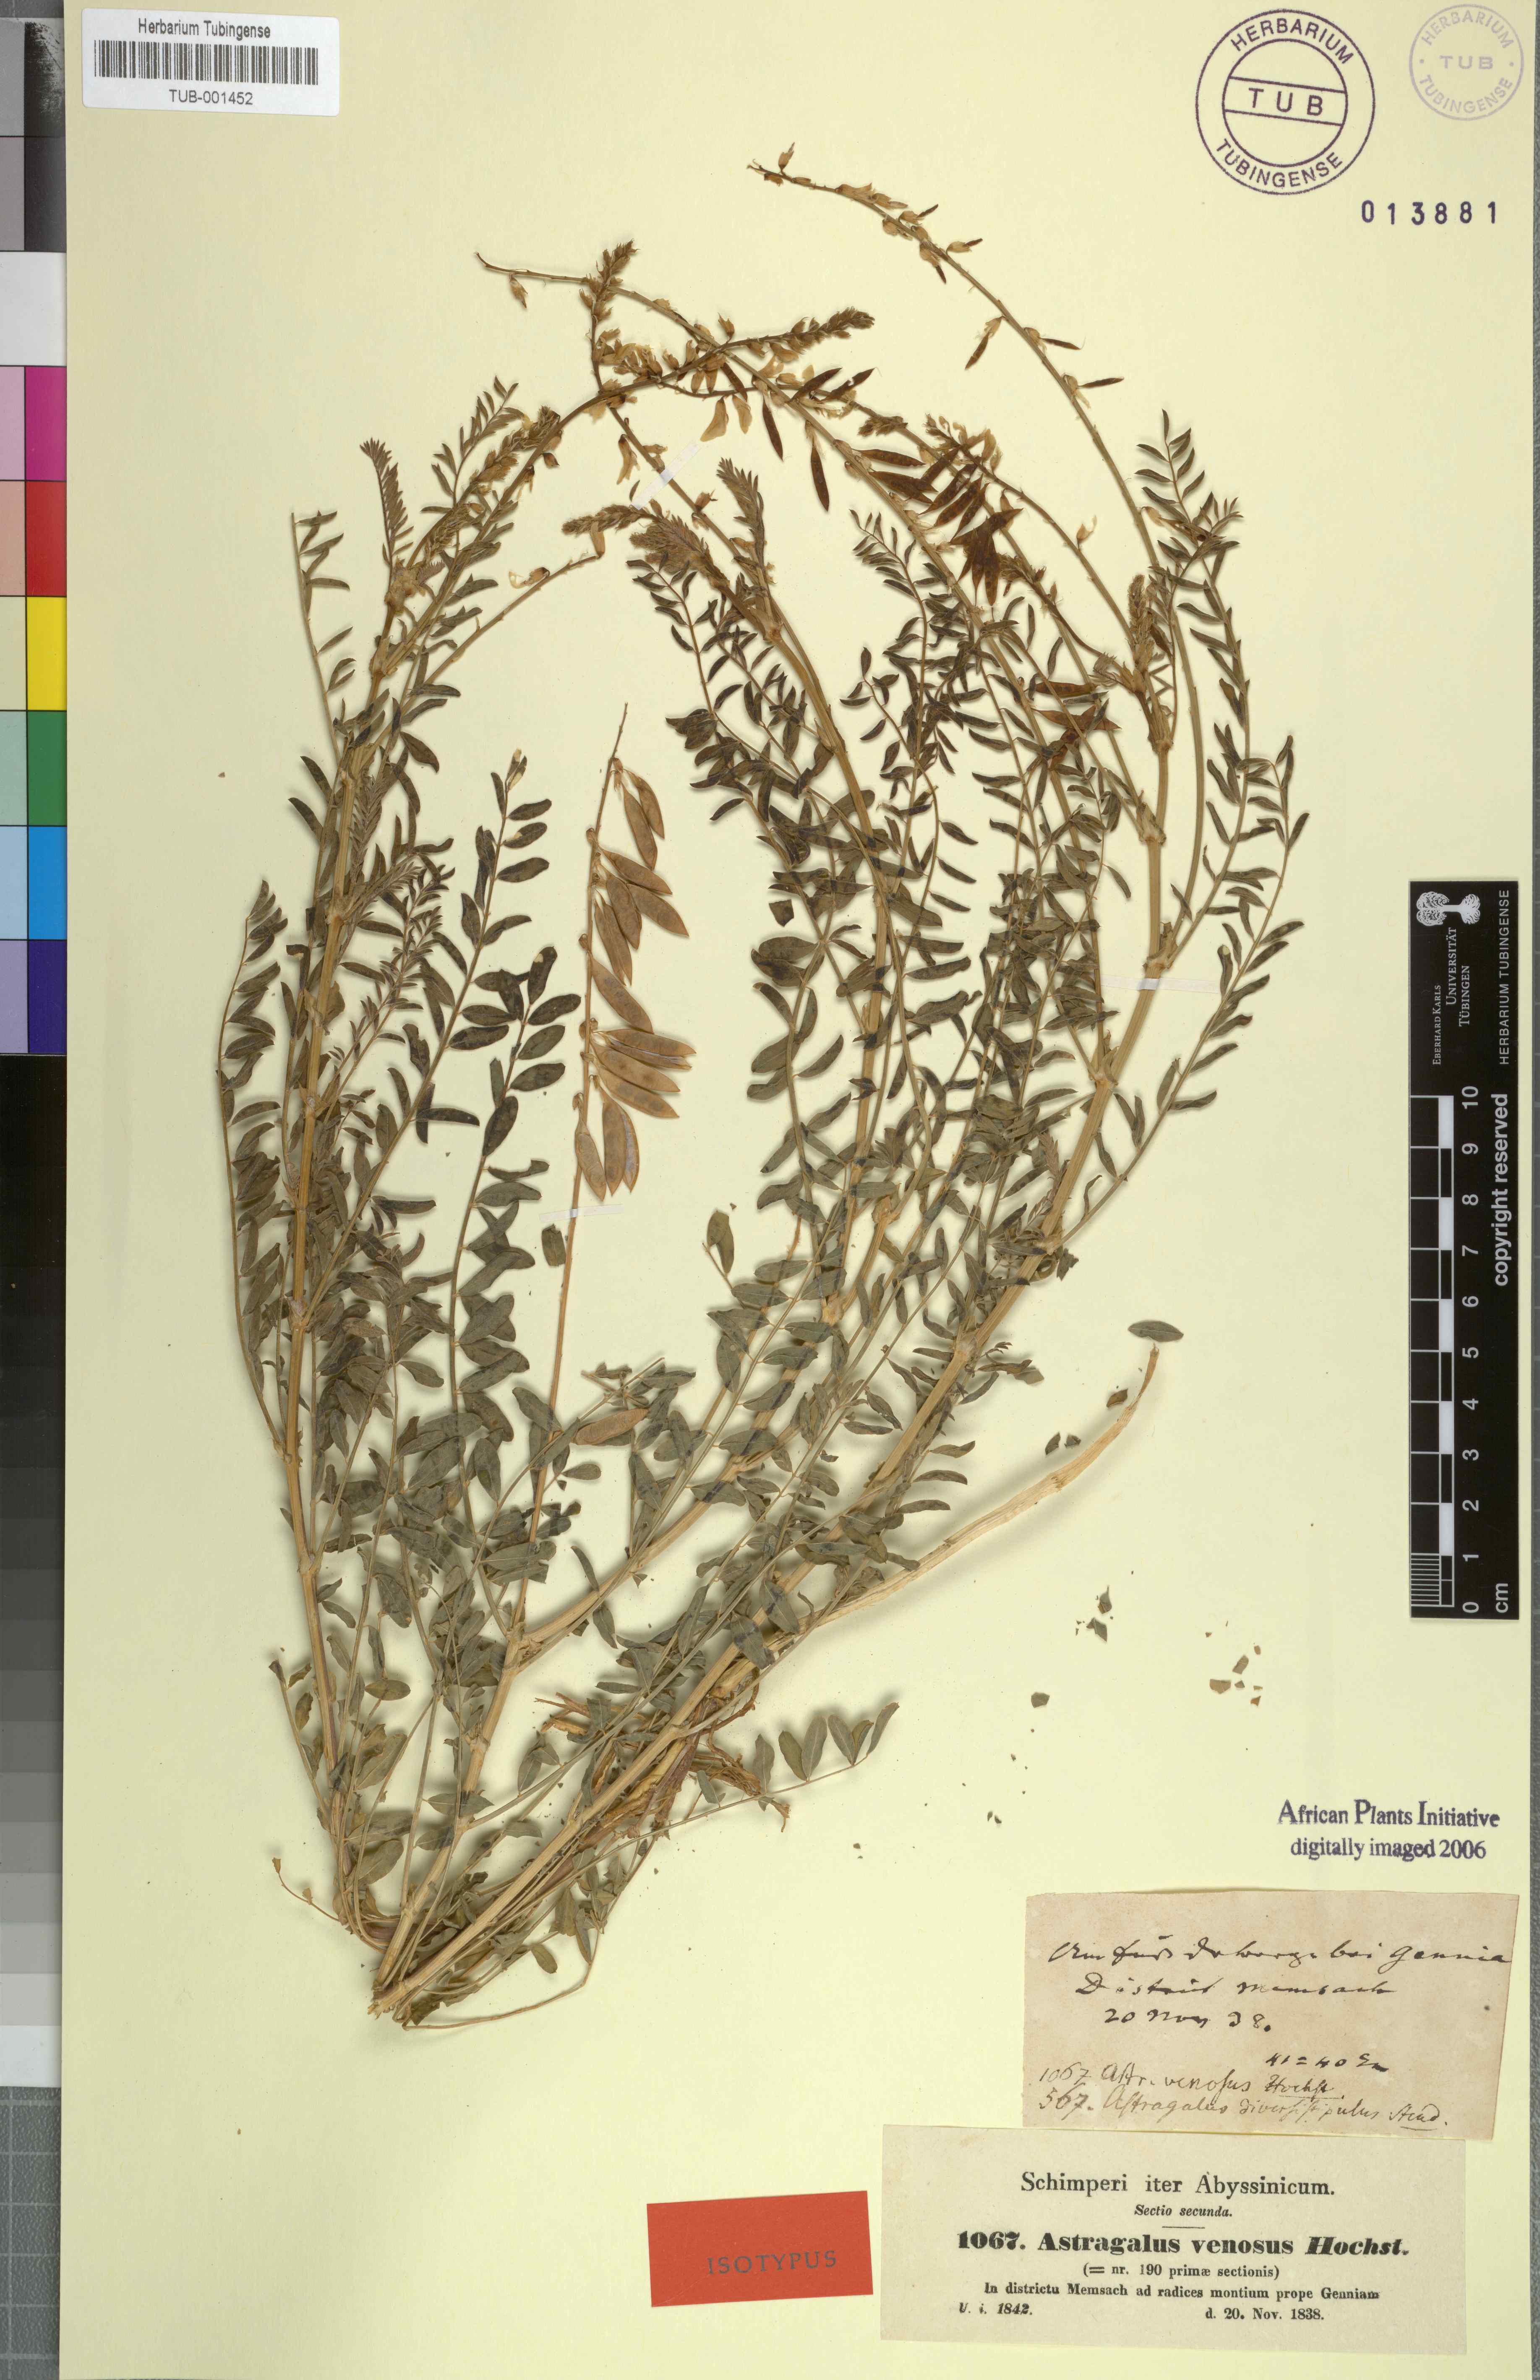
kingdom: Plantae
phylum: Tracheophyta
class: Magnoliopsida
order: Fabales
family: Fabaceae
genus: Astragalus
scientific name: Astragalus atropilosulus
